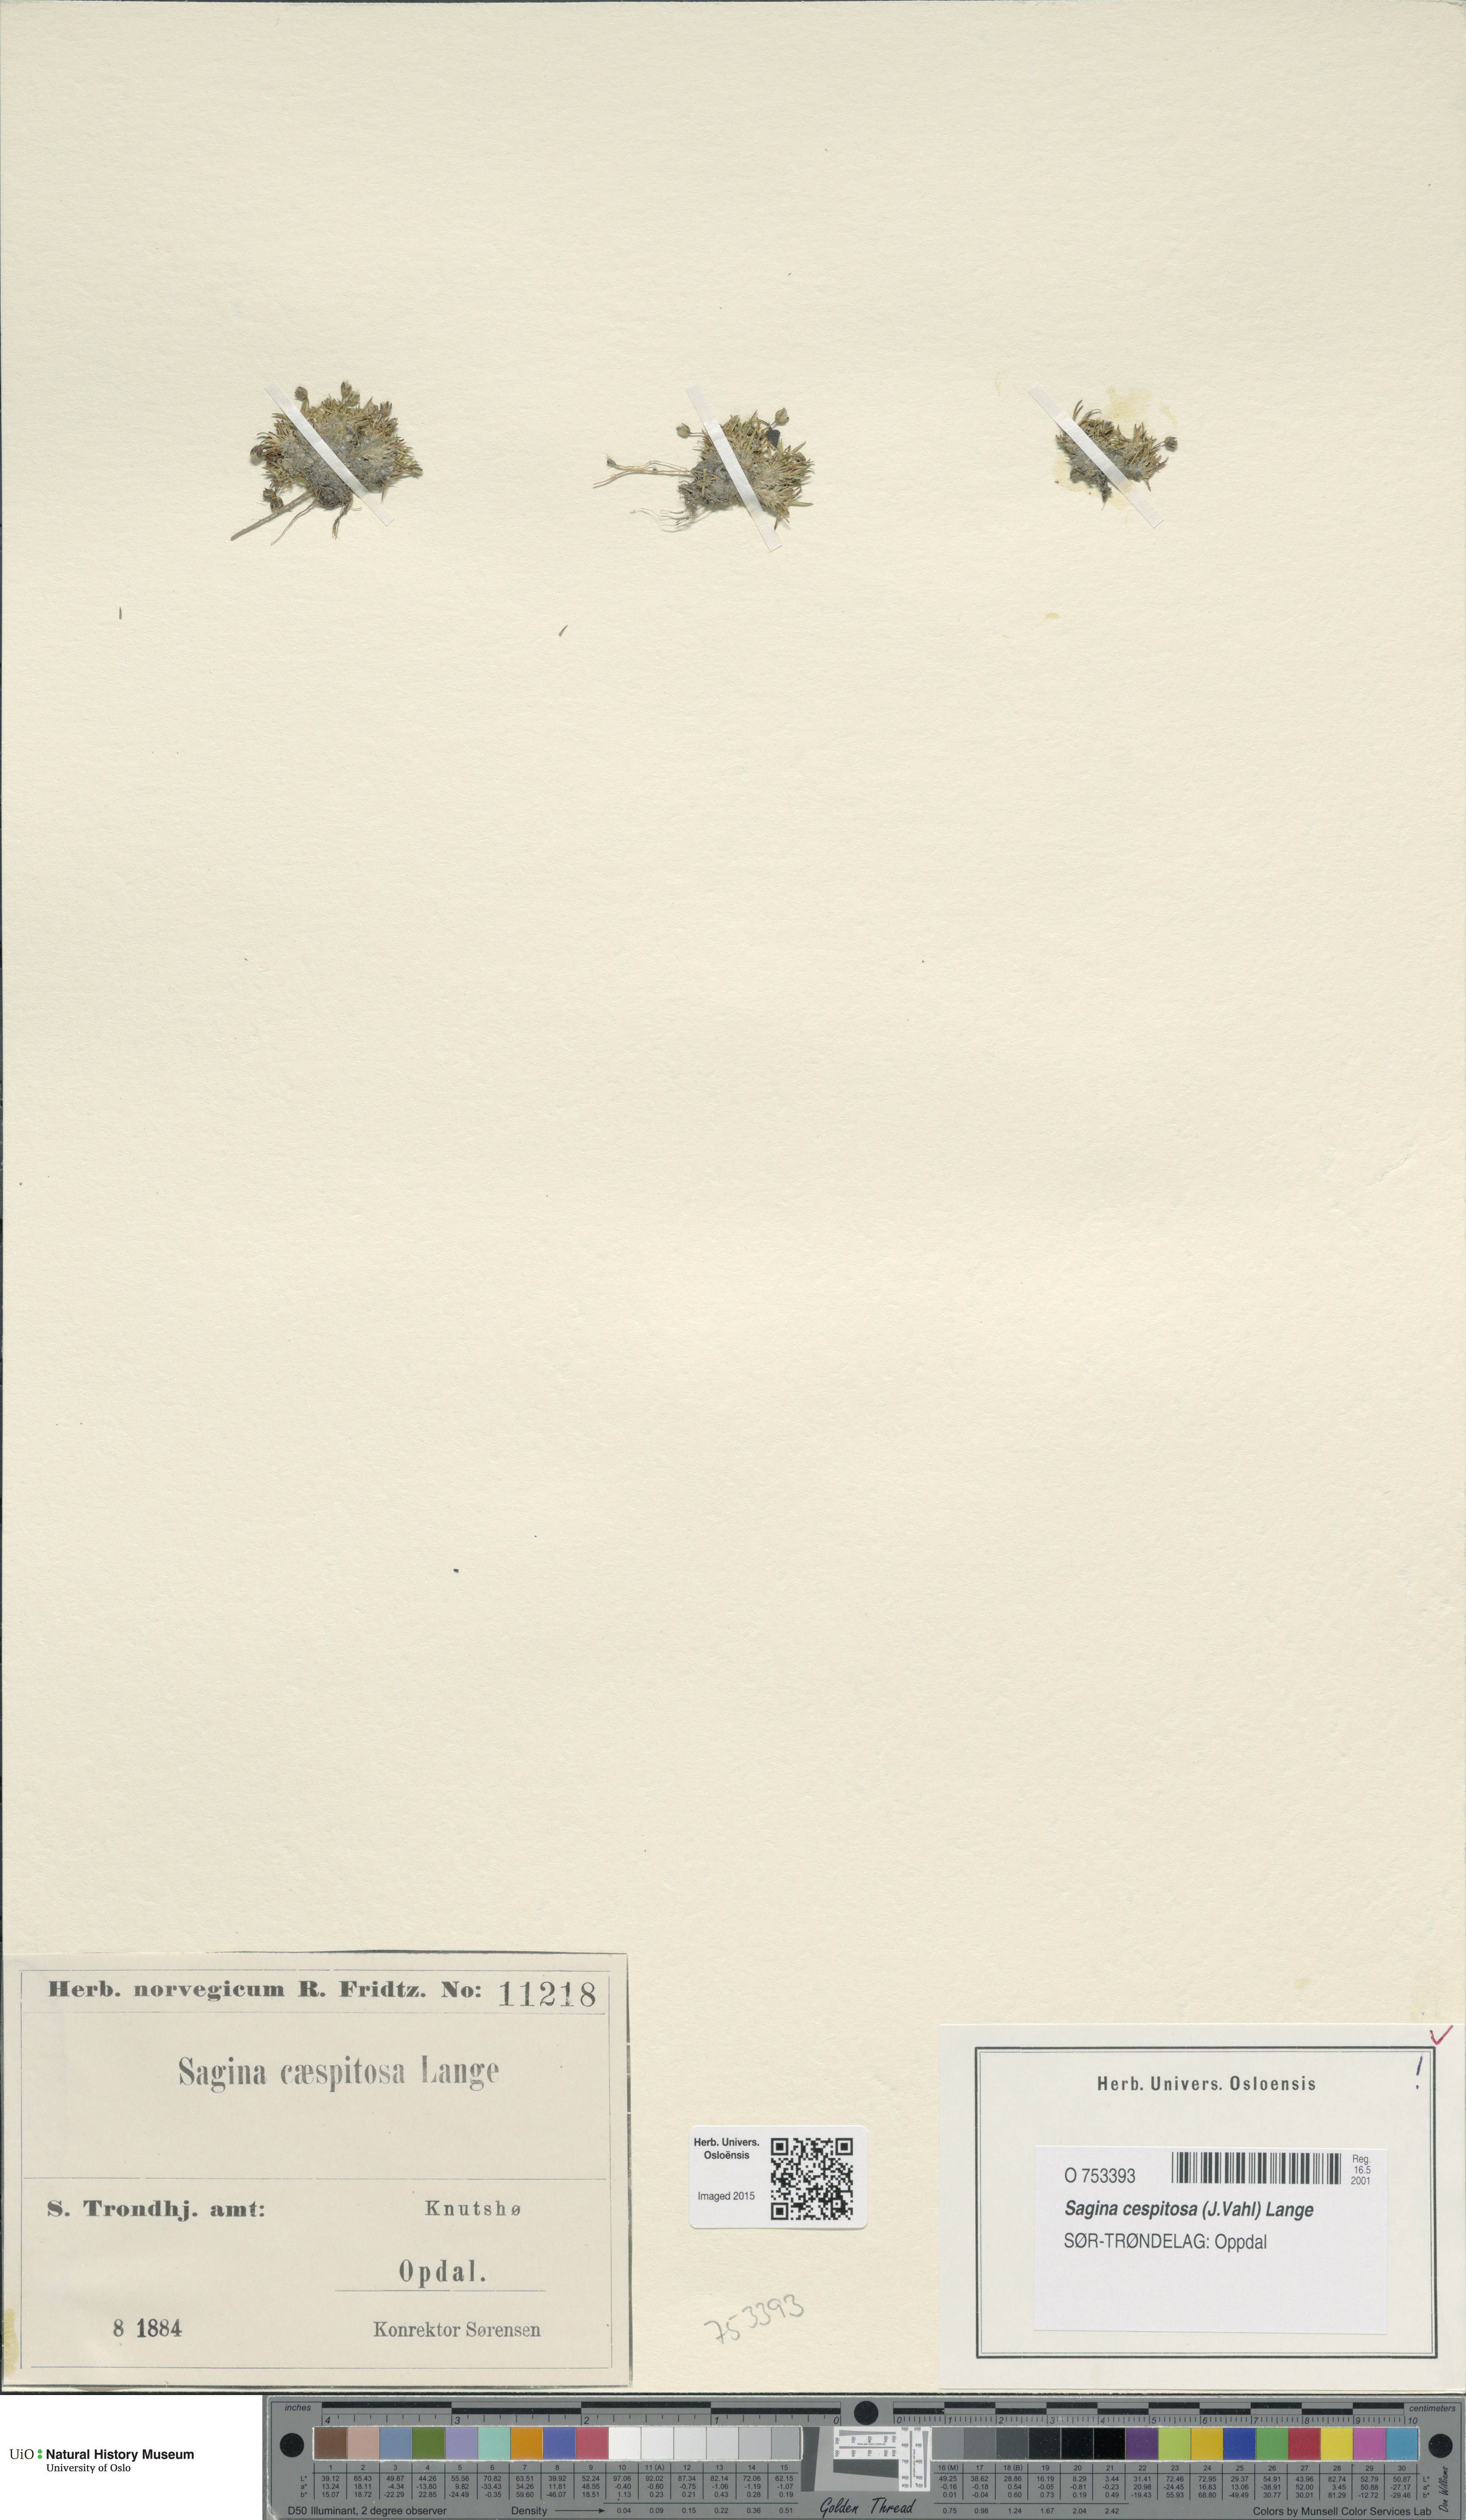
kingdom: Plantae
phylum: Tracheophyta
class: Magnoliopsida
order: Caryophyllales
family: Caryophyllaceae
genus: Sagina
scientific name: Sagina caespitosa
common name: Tufted pearlwort
